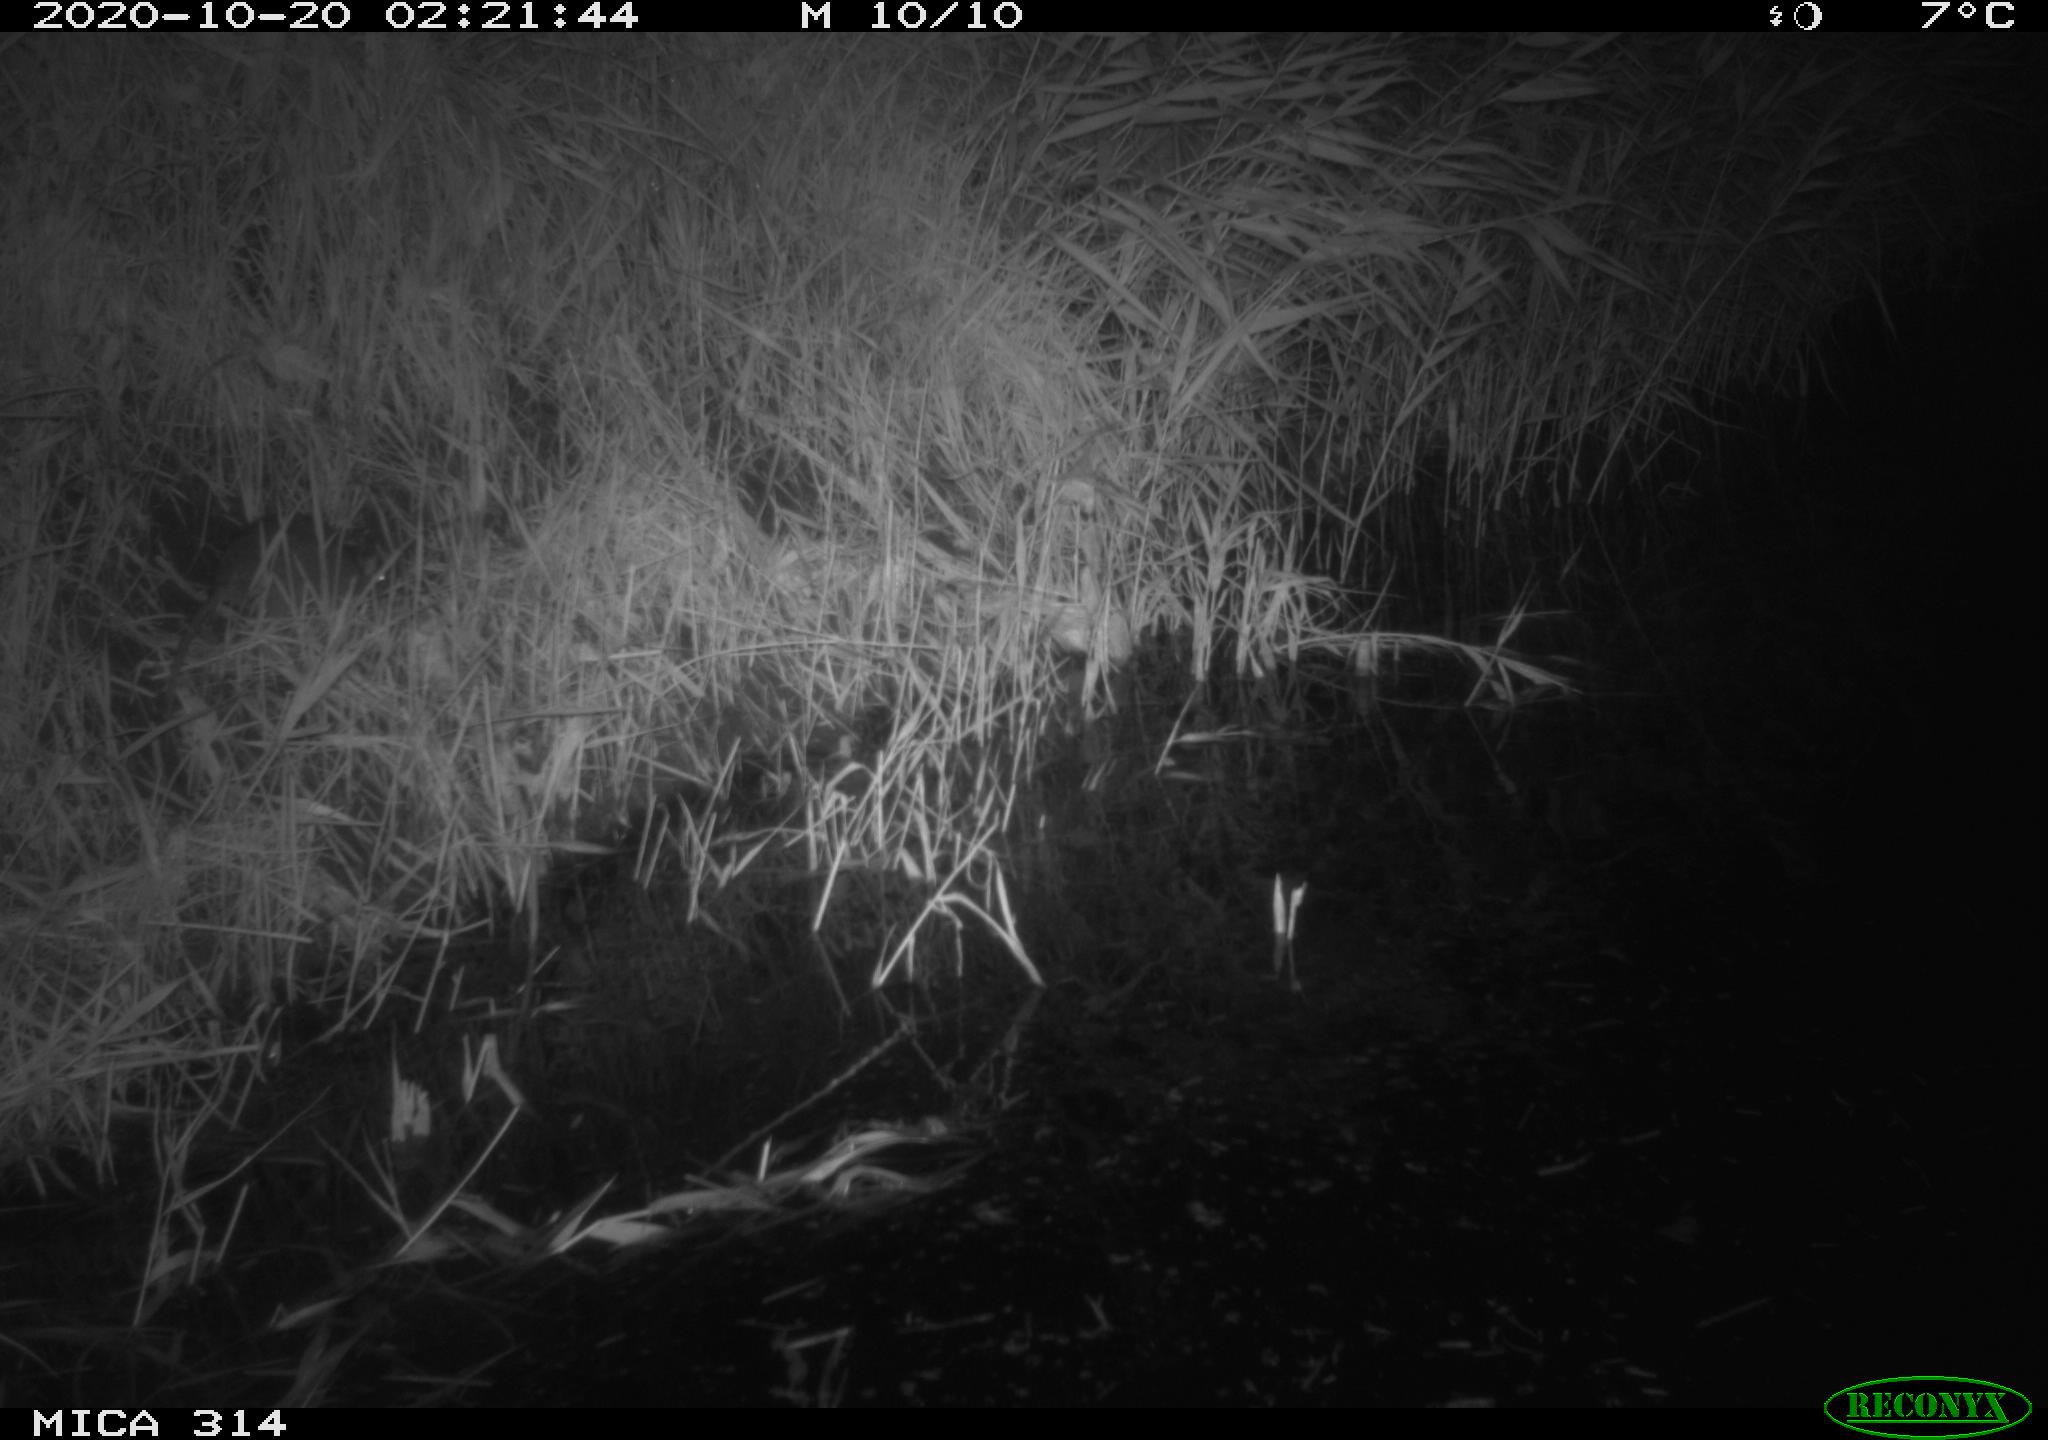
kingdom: Animalia
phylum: Chordata
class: Mammalia
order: Rodentia
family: Muridae
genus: Rattus
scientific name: Rattus norvegicus
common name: Brown rat
